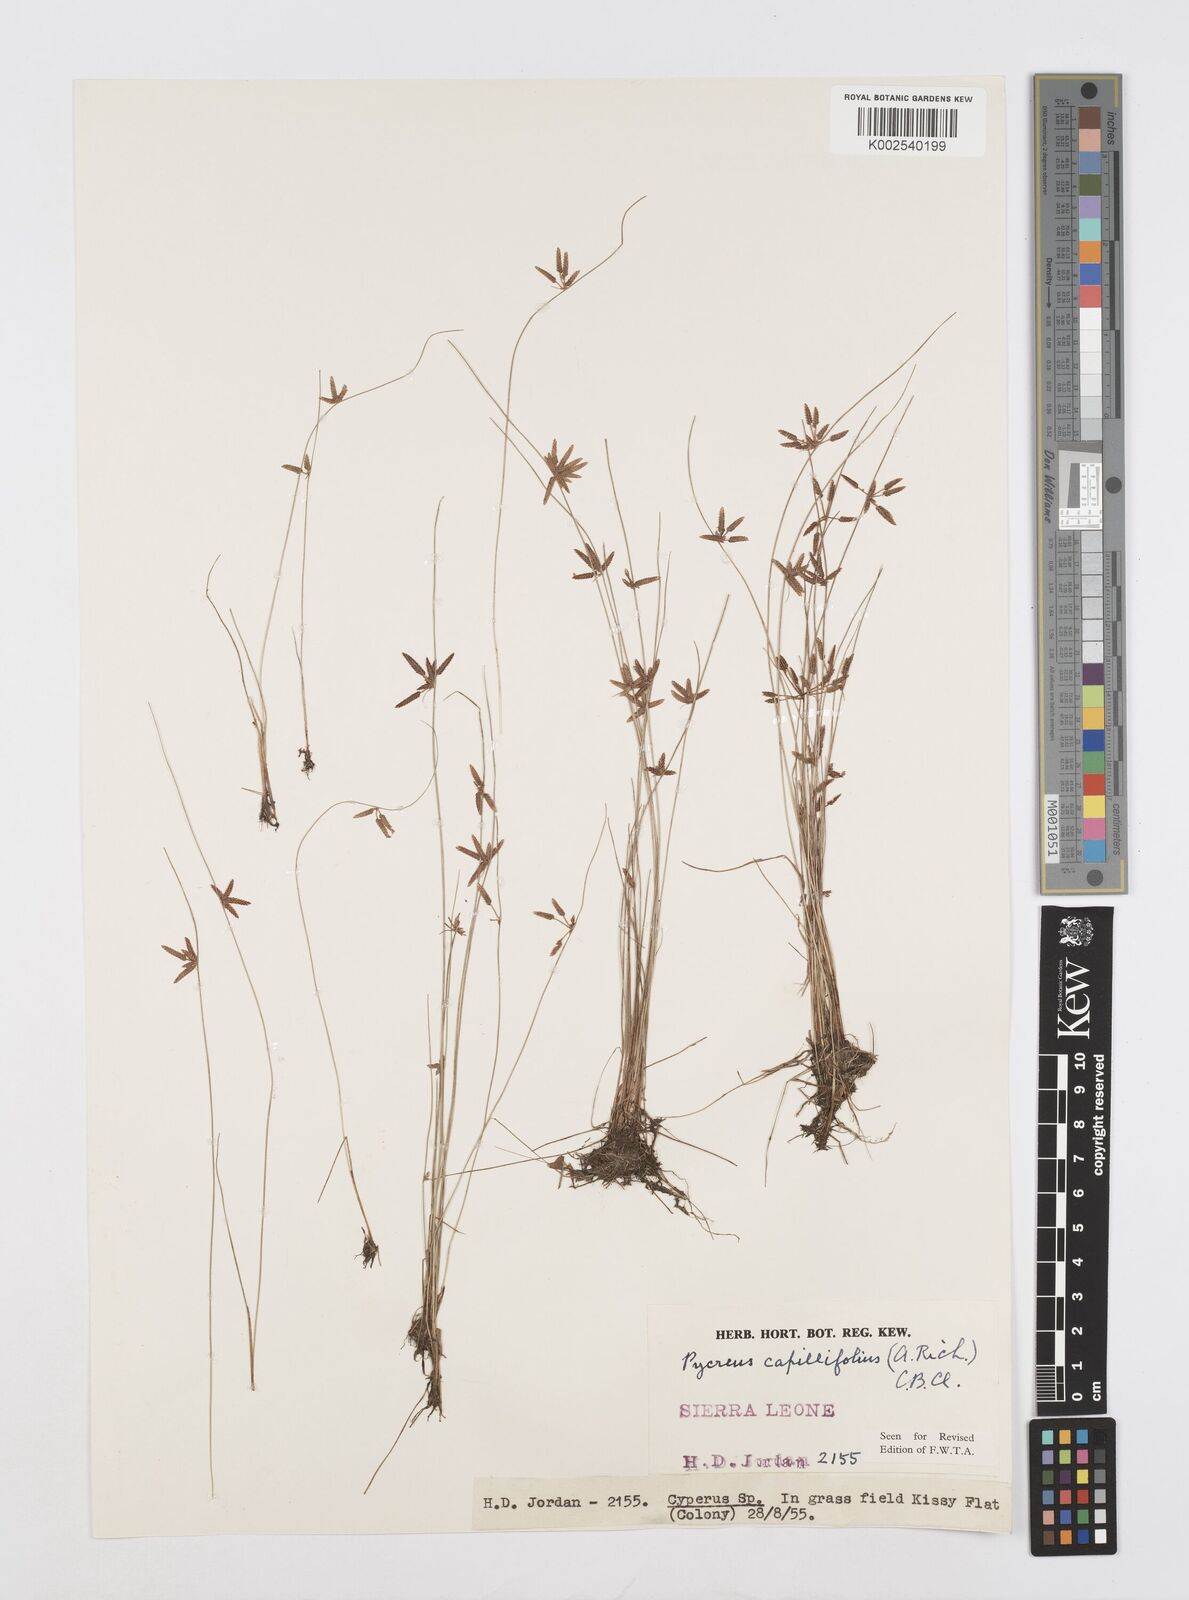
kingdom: Plantae
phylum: Tracheophyta
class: Liliopsida
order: Poales
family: Cyperaceae
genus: Cyperus
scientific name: Cyperus capillifolius
